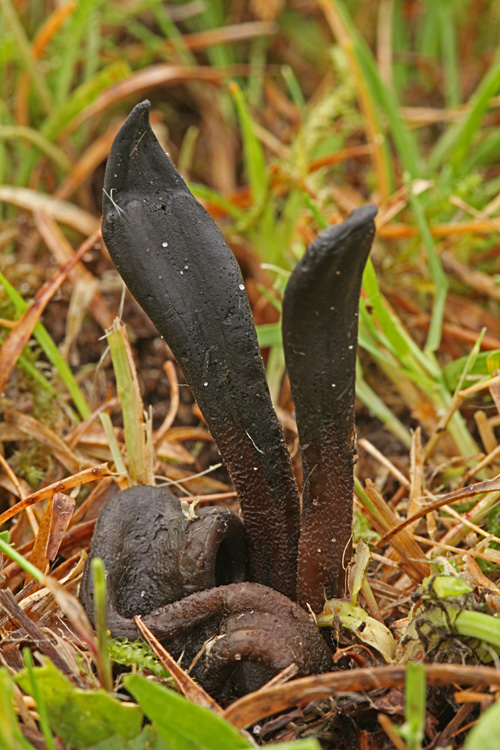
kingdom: Fungi
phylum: Ascomycota
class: Geoglossomycetes
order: Geoglossales
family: Geoglossaceae
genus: Hemileucoglossum
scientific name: Hemileucoglossum elongatum
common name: småsporet jordtunge
